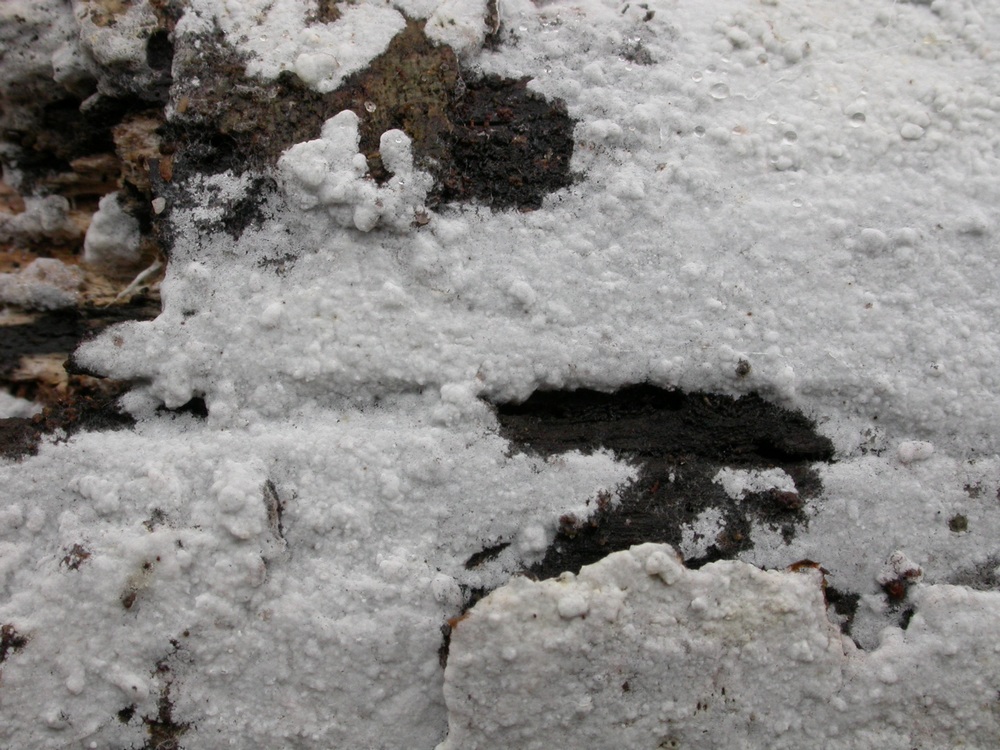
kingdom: Fungi
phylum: Basidiomycota
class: Agaricomycetes
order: Atheliales
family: Atheliaceae
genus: Athelia
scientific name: Athelia epiphylla
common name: almindelig barkhinde
